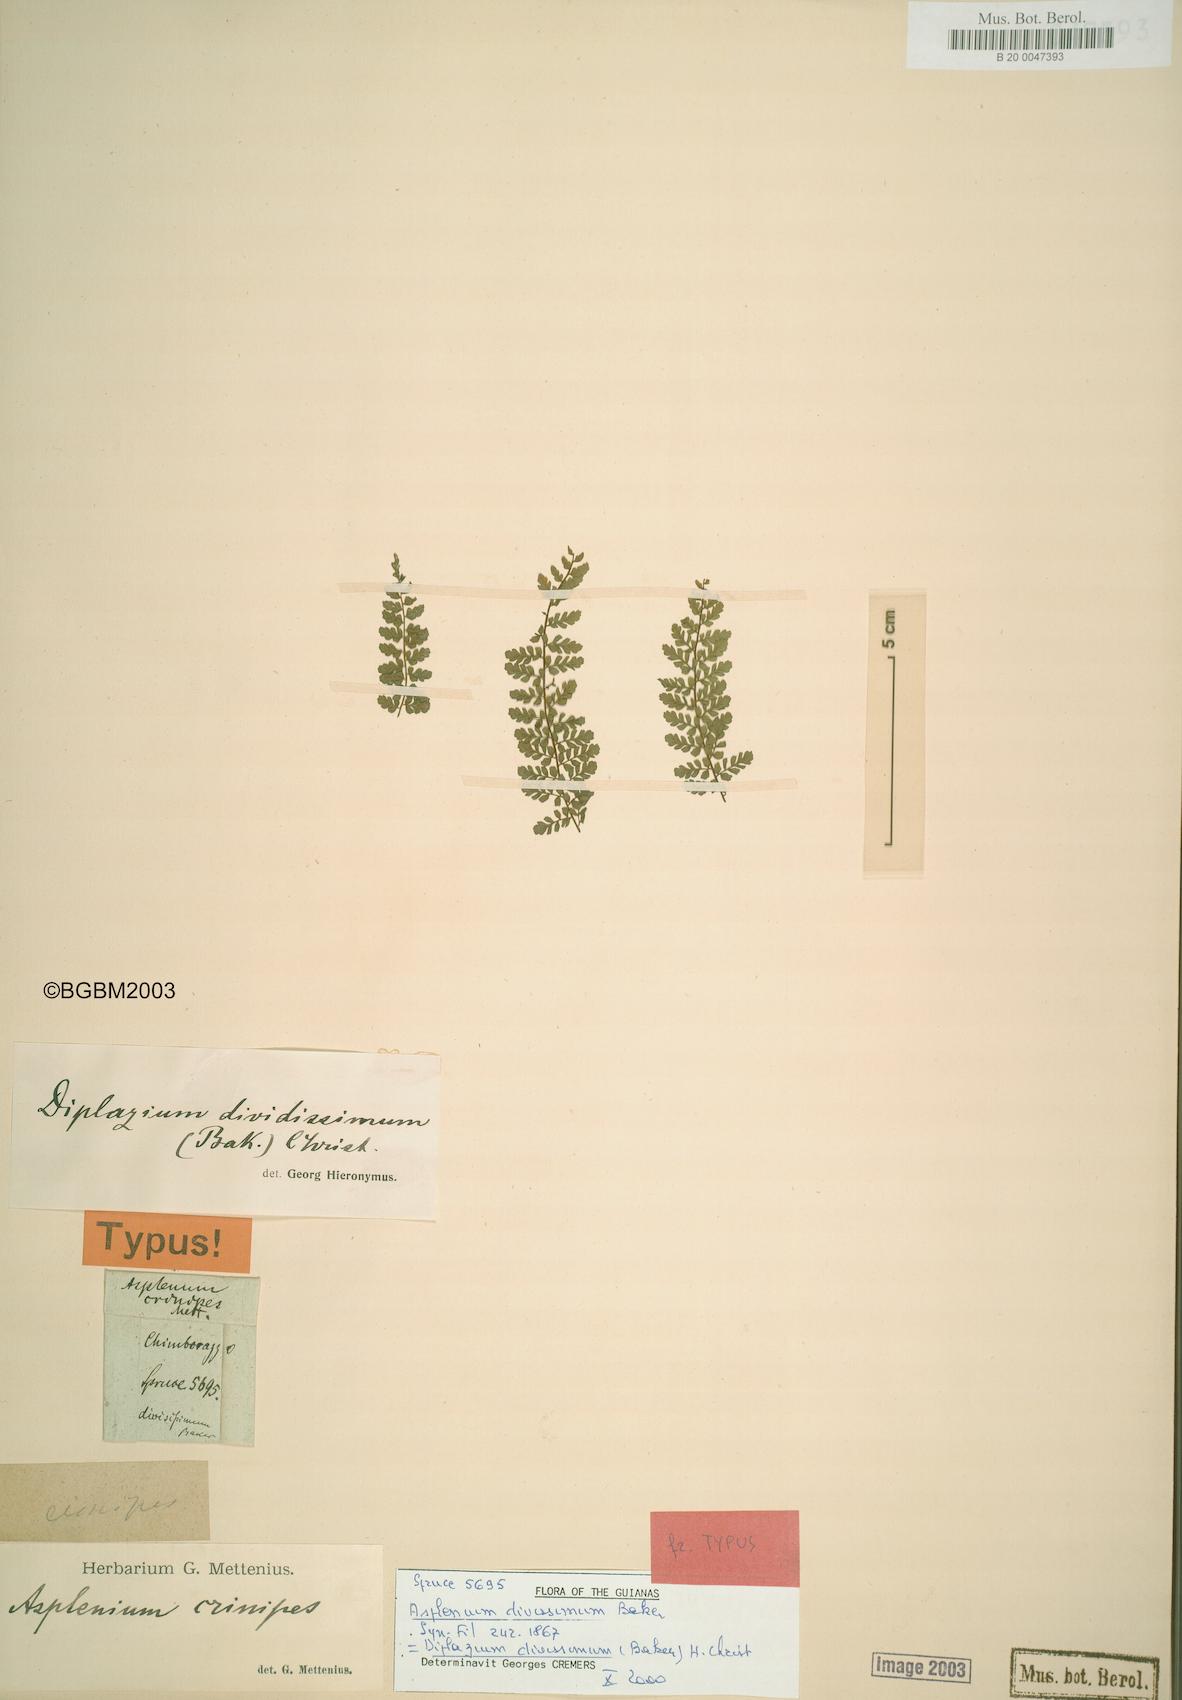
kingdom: Plantae
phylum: Tracheophyta
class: Polypodiopsida
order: Polypodiales
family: Athyriaceae
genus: Diplazium
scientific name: Diplazium divisissimum
